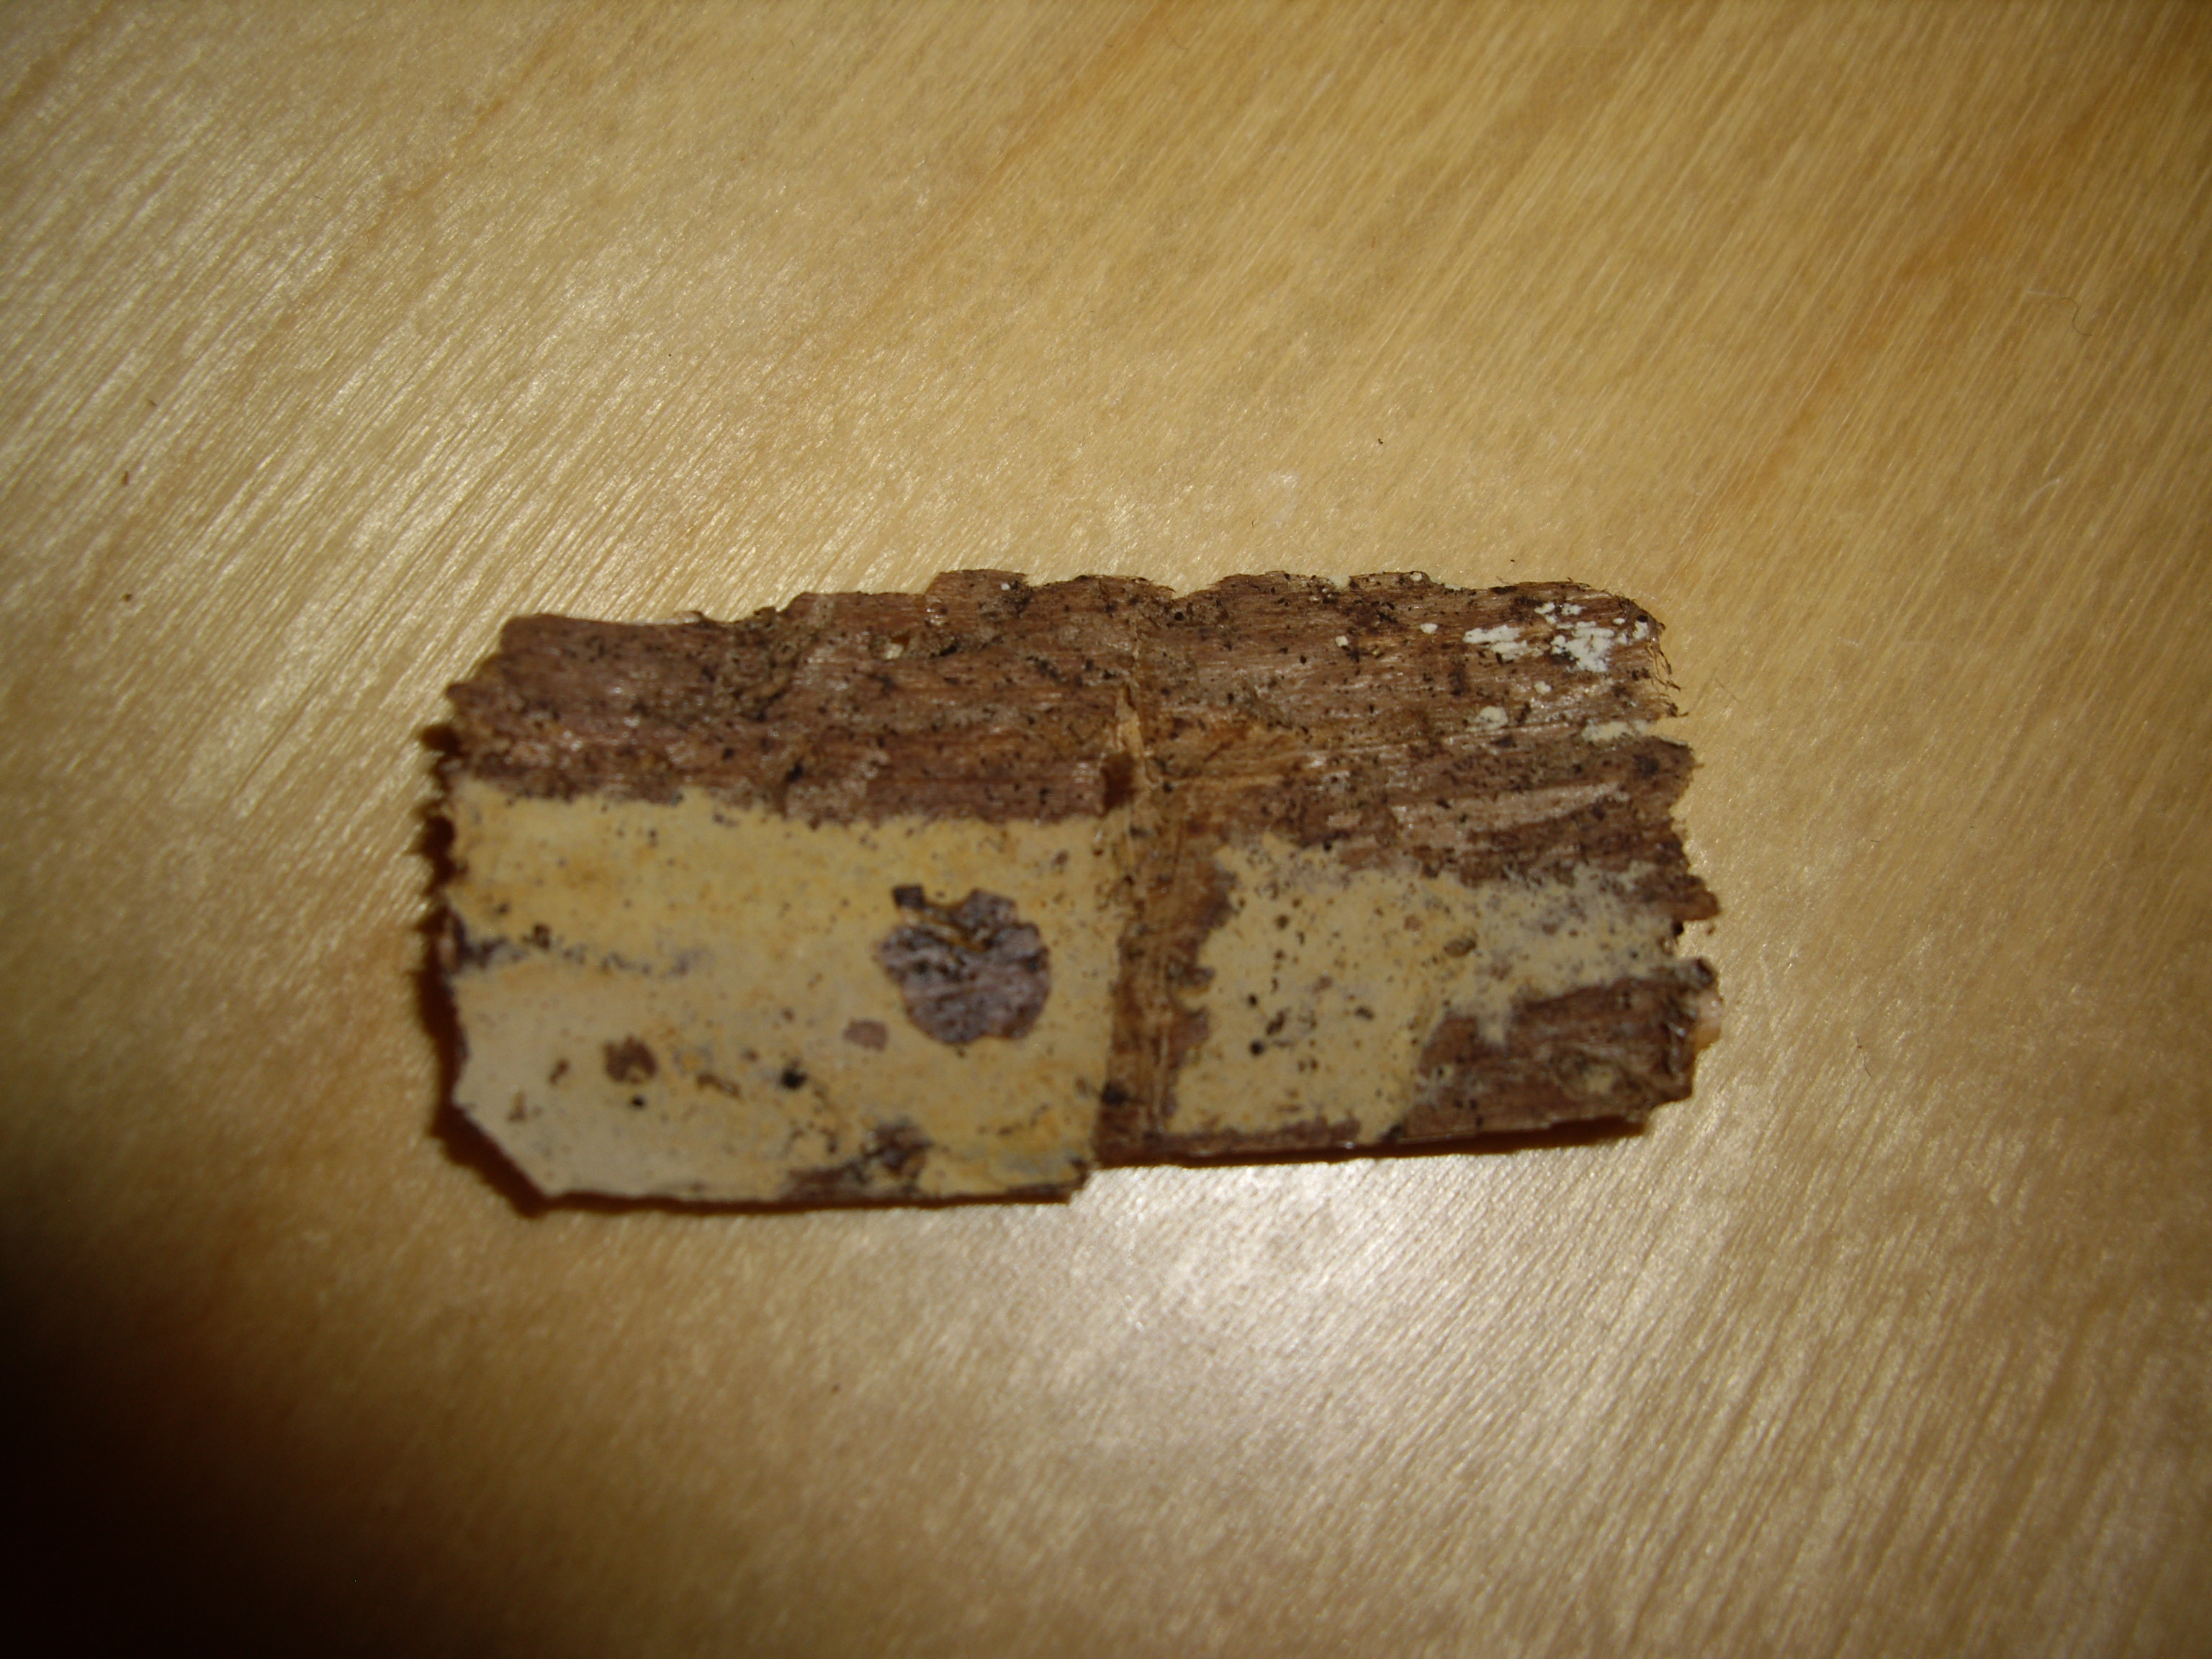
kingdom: Fungi
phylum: Basidiomycota
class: Agaricomycetes
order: Polyporales
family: Phanerochaetaceae
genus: Phanerochaete
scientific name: Phanerochaete sordida
